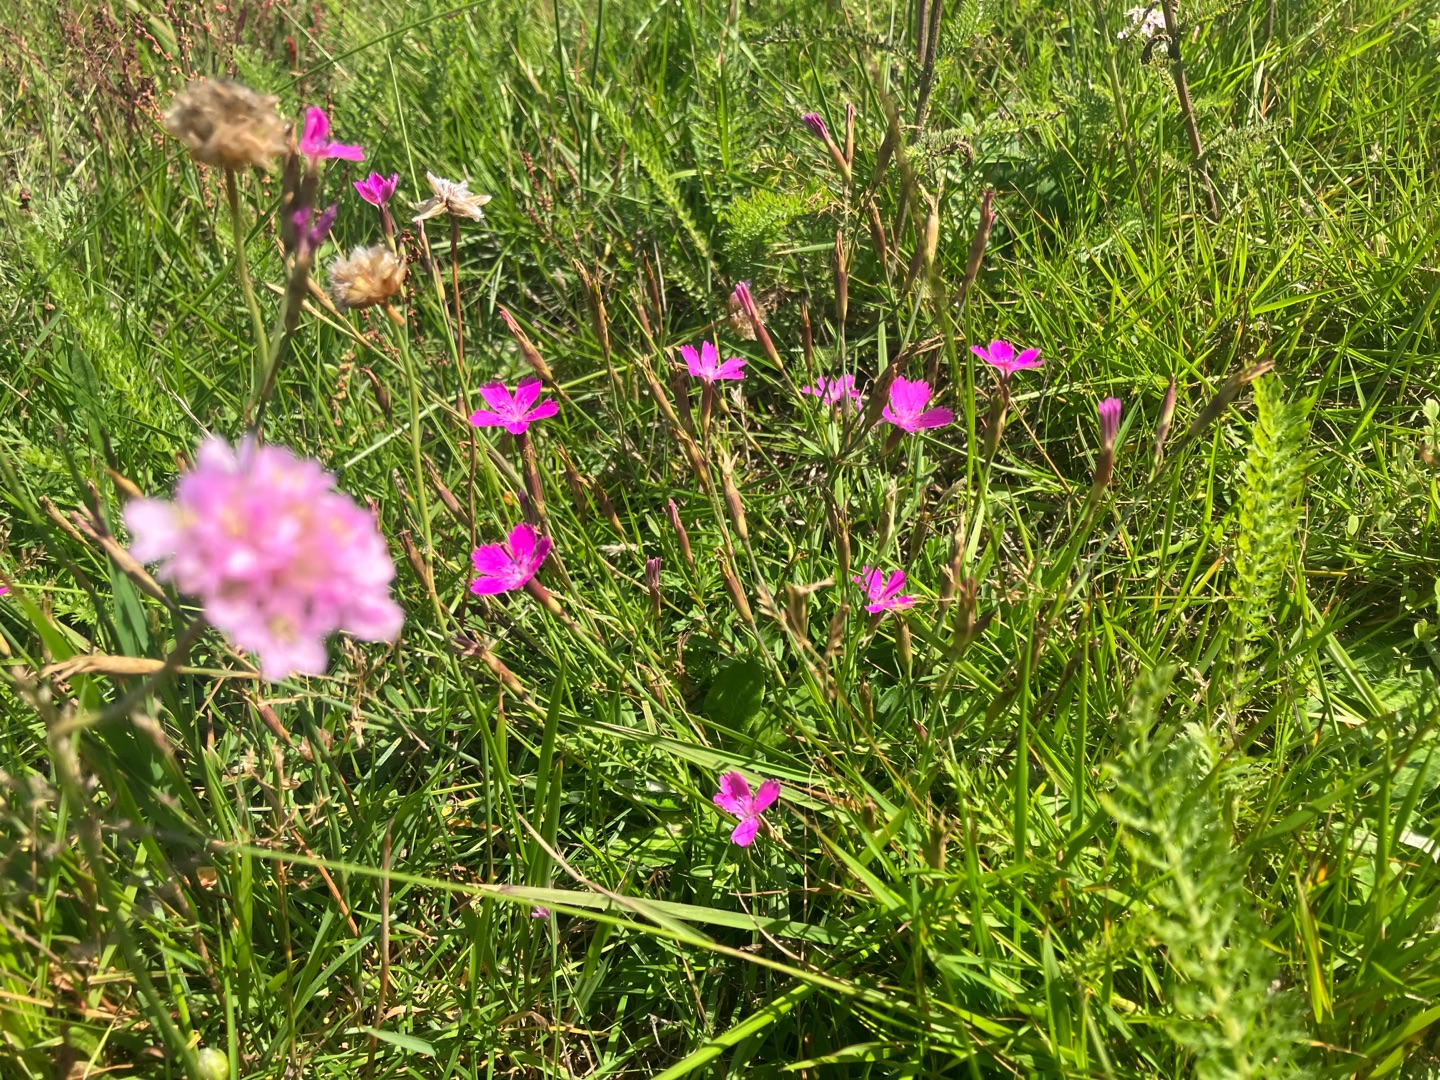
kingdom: Plantae
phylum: Tracheophyta
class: Magnoliopsida
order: Caryophyllales
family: Caryophyllaceae
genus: Dianthus
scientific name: Dianthus deltoides
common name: Bakke-nellike
